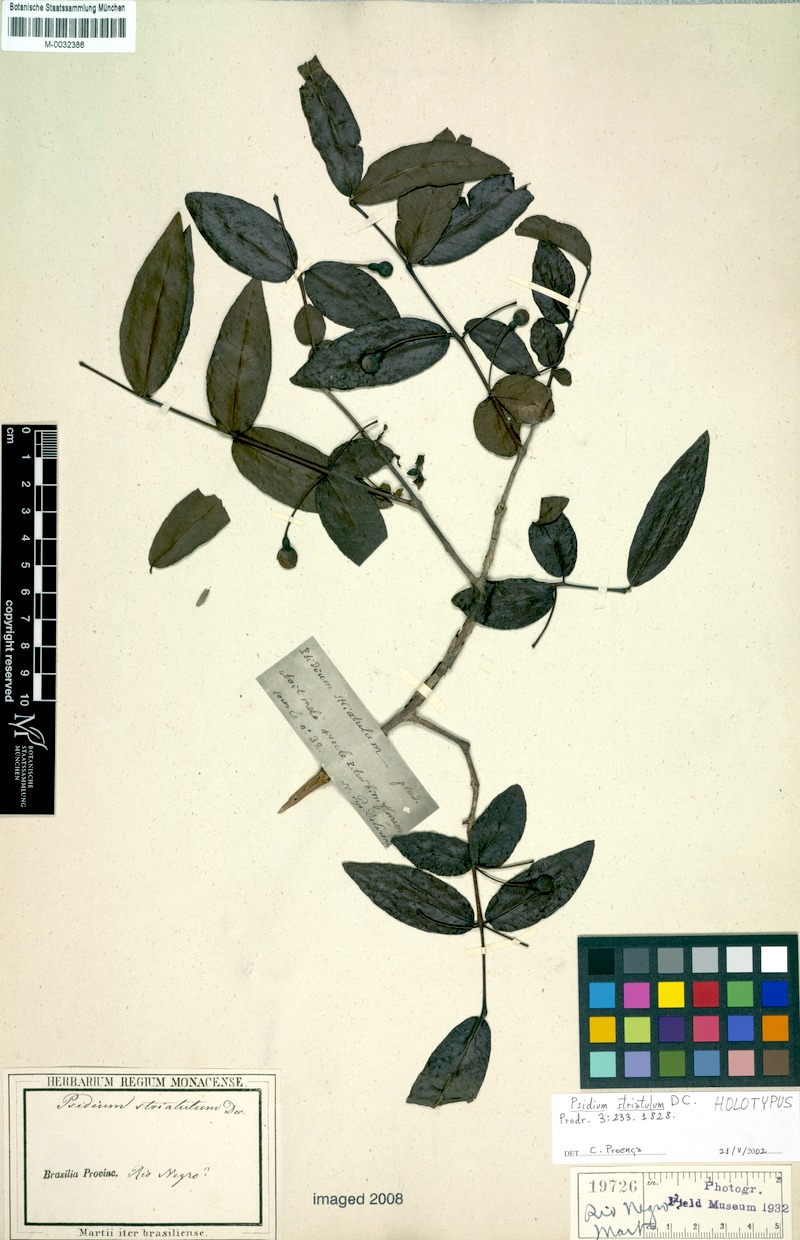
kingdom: Plantae
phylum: Tracheophyta
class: Magnoliopsida
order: Myrtales
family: Myrtaceae
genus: Psidium
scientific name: Psidium striatulum
